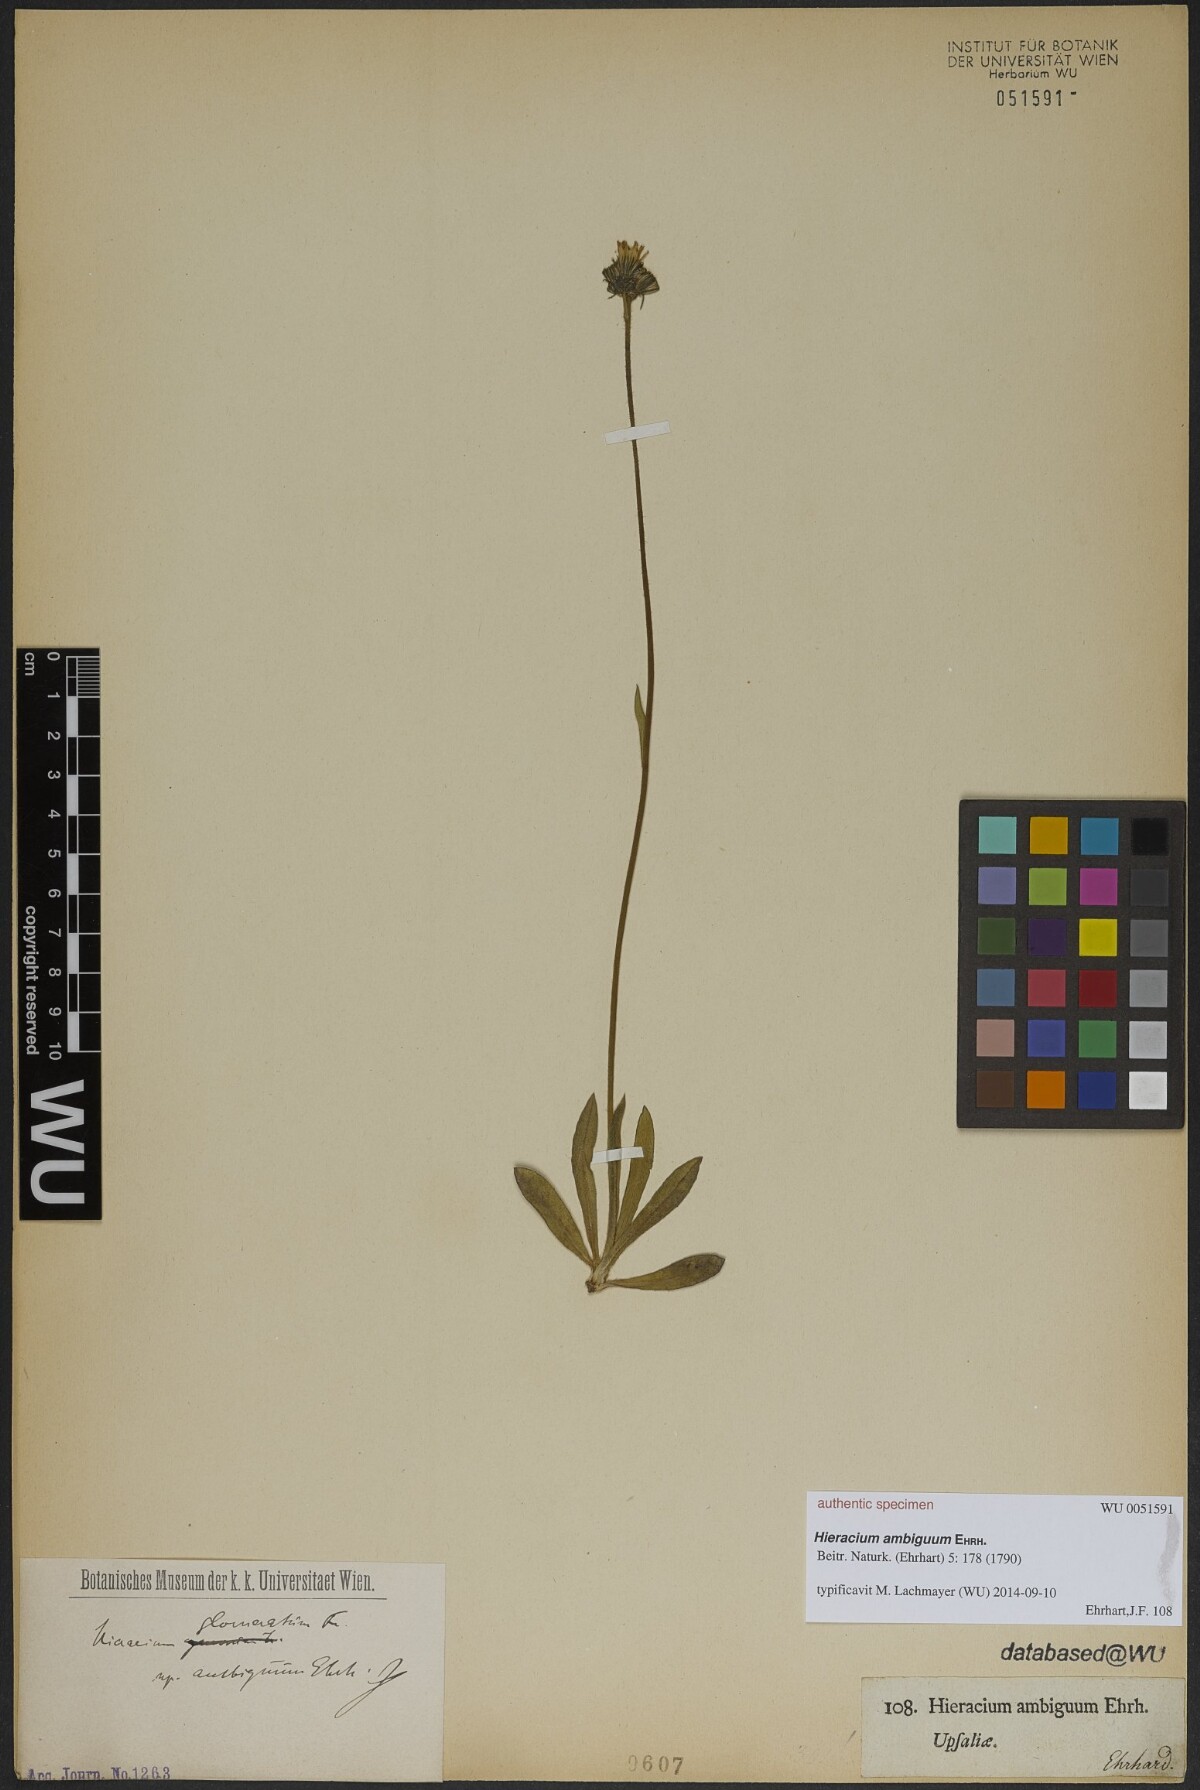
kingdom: Plantae
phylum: Tracheophyta
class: Magnoliopsida
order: Asterales
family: Asteraceae
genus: Pilosella
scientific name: Pilosella caespitosa
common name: Yellow fox-and-cubs
